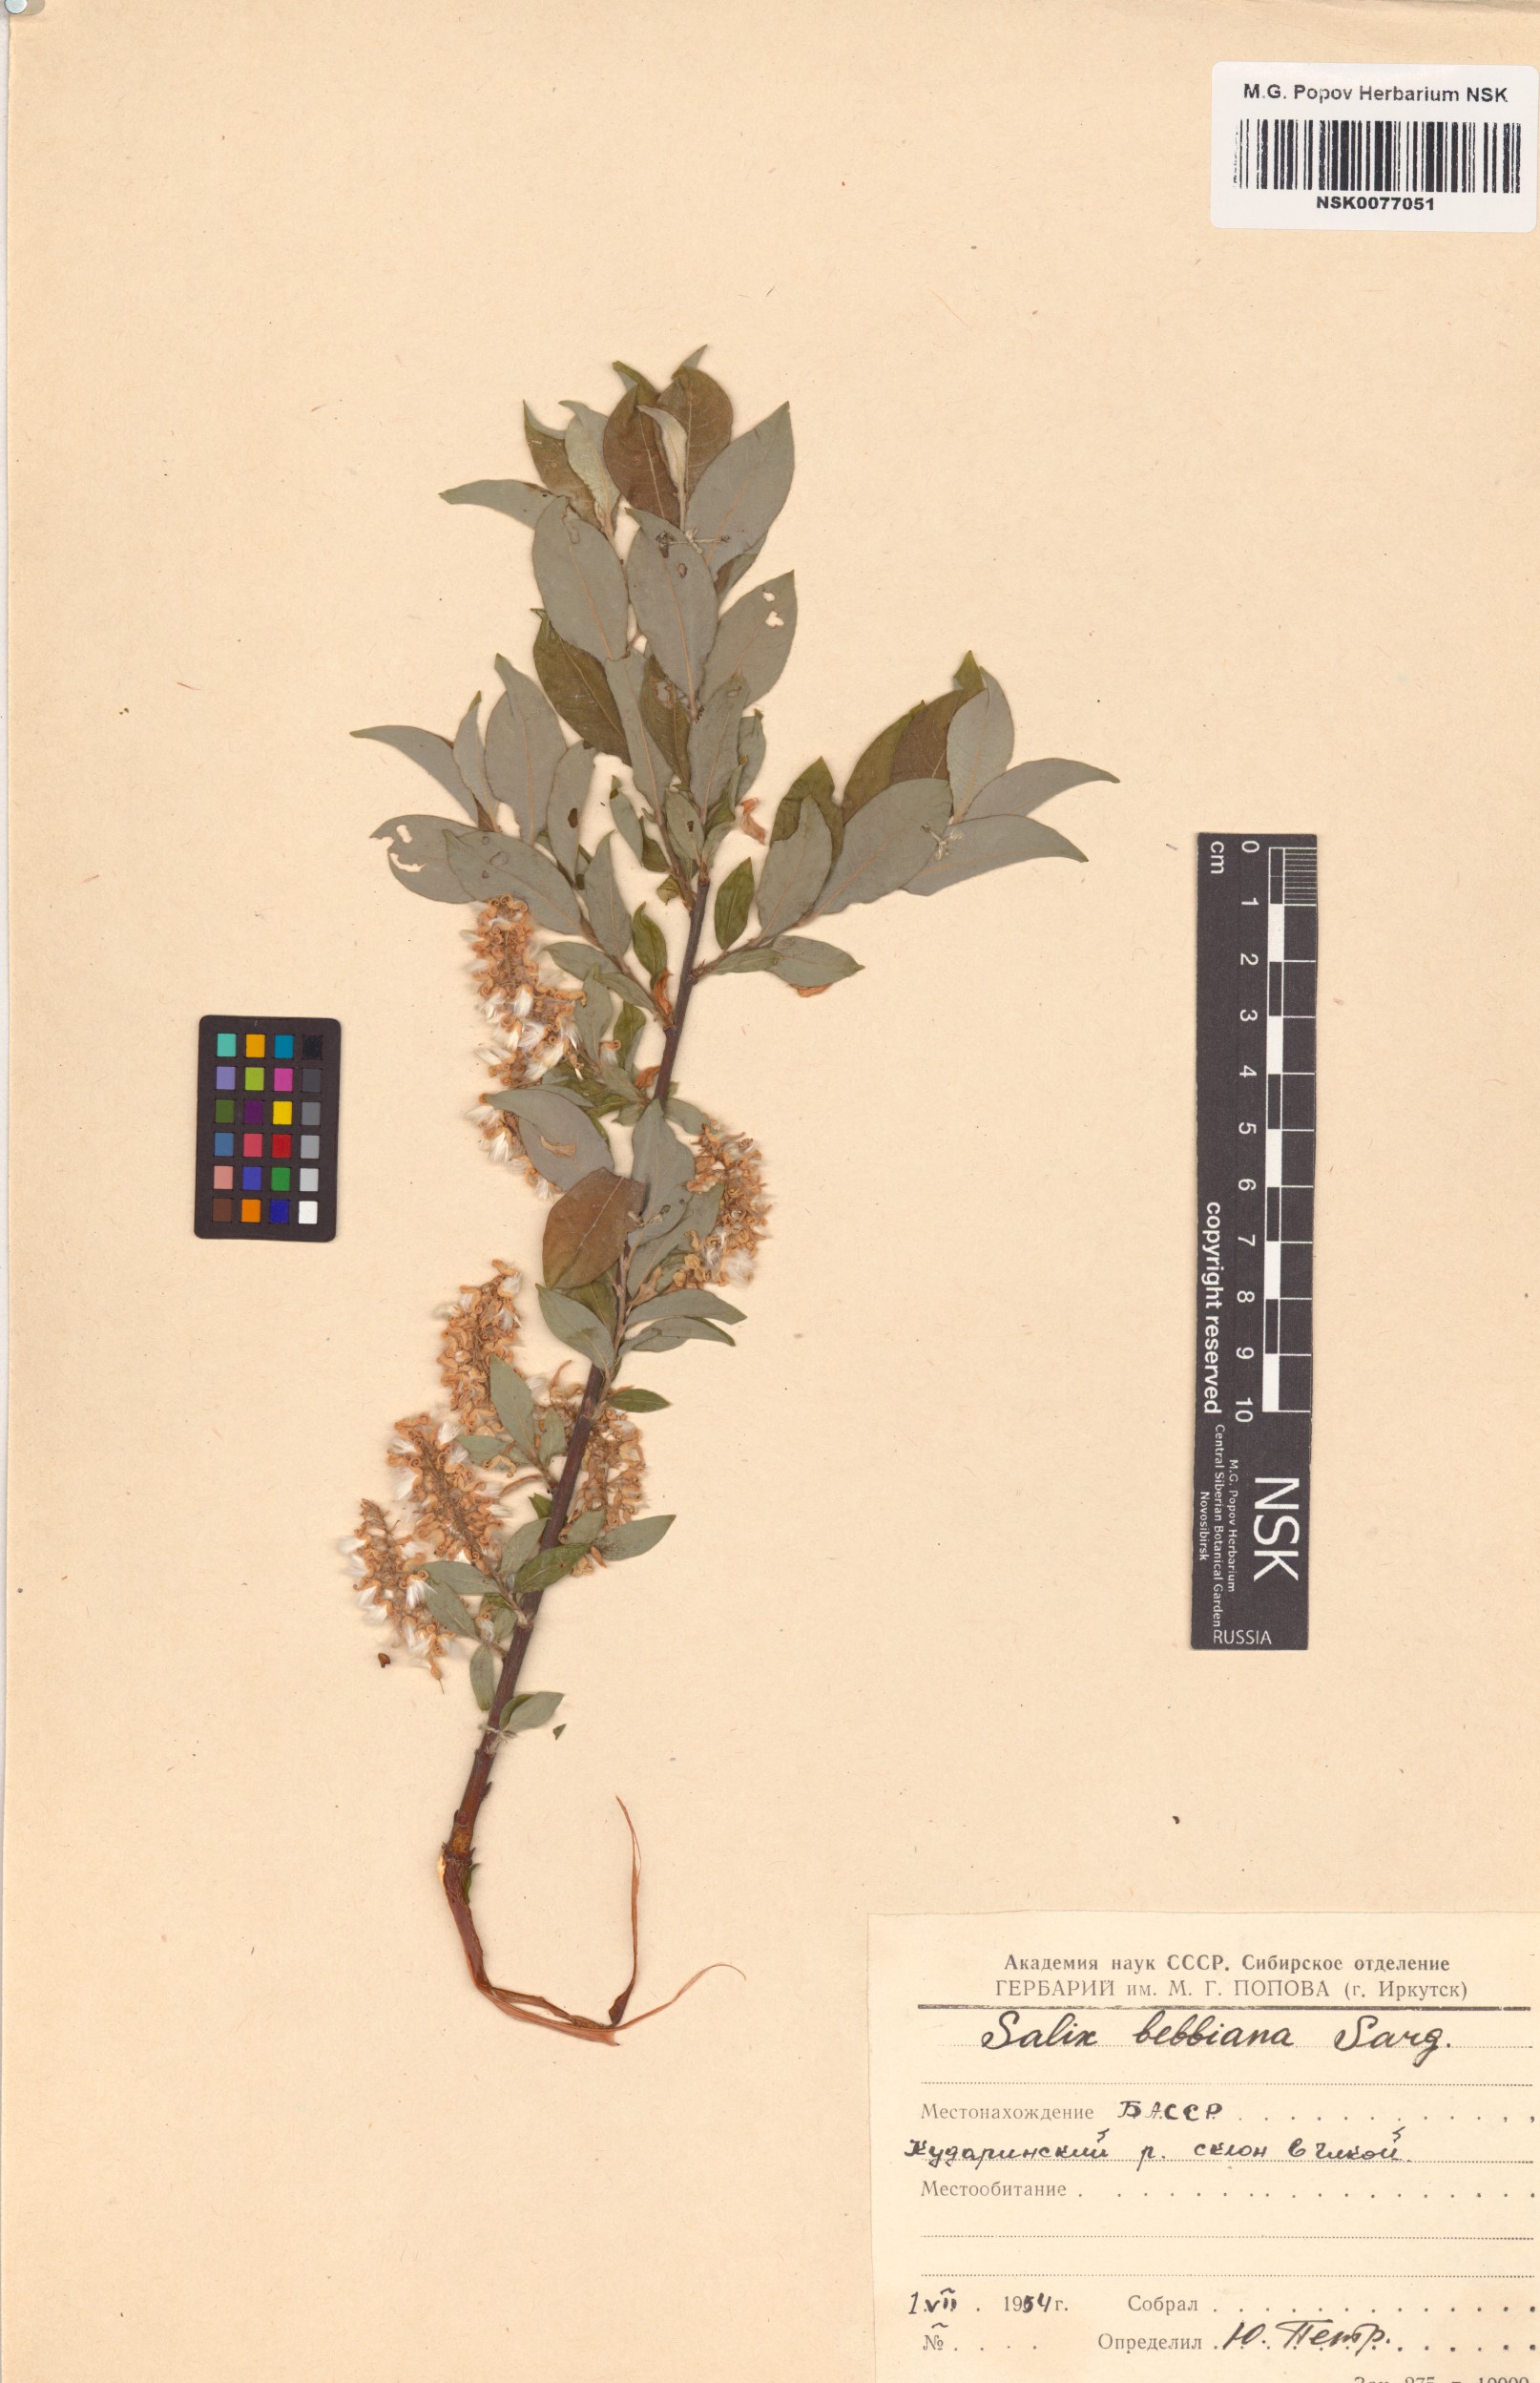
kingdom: Plantae
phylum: Tracheophyta
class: Magnoliopsida
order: Malpighiales
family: Salicaceae
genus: Salix
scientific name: Salix bebbiana
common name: Bebb's willow
